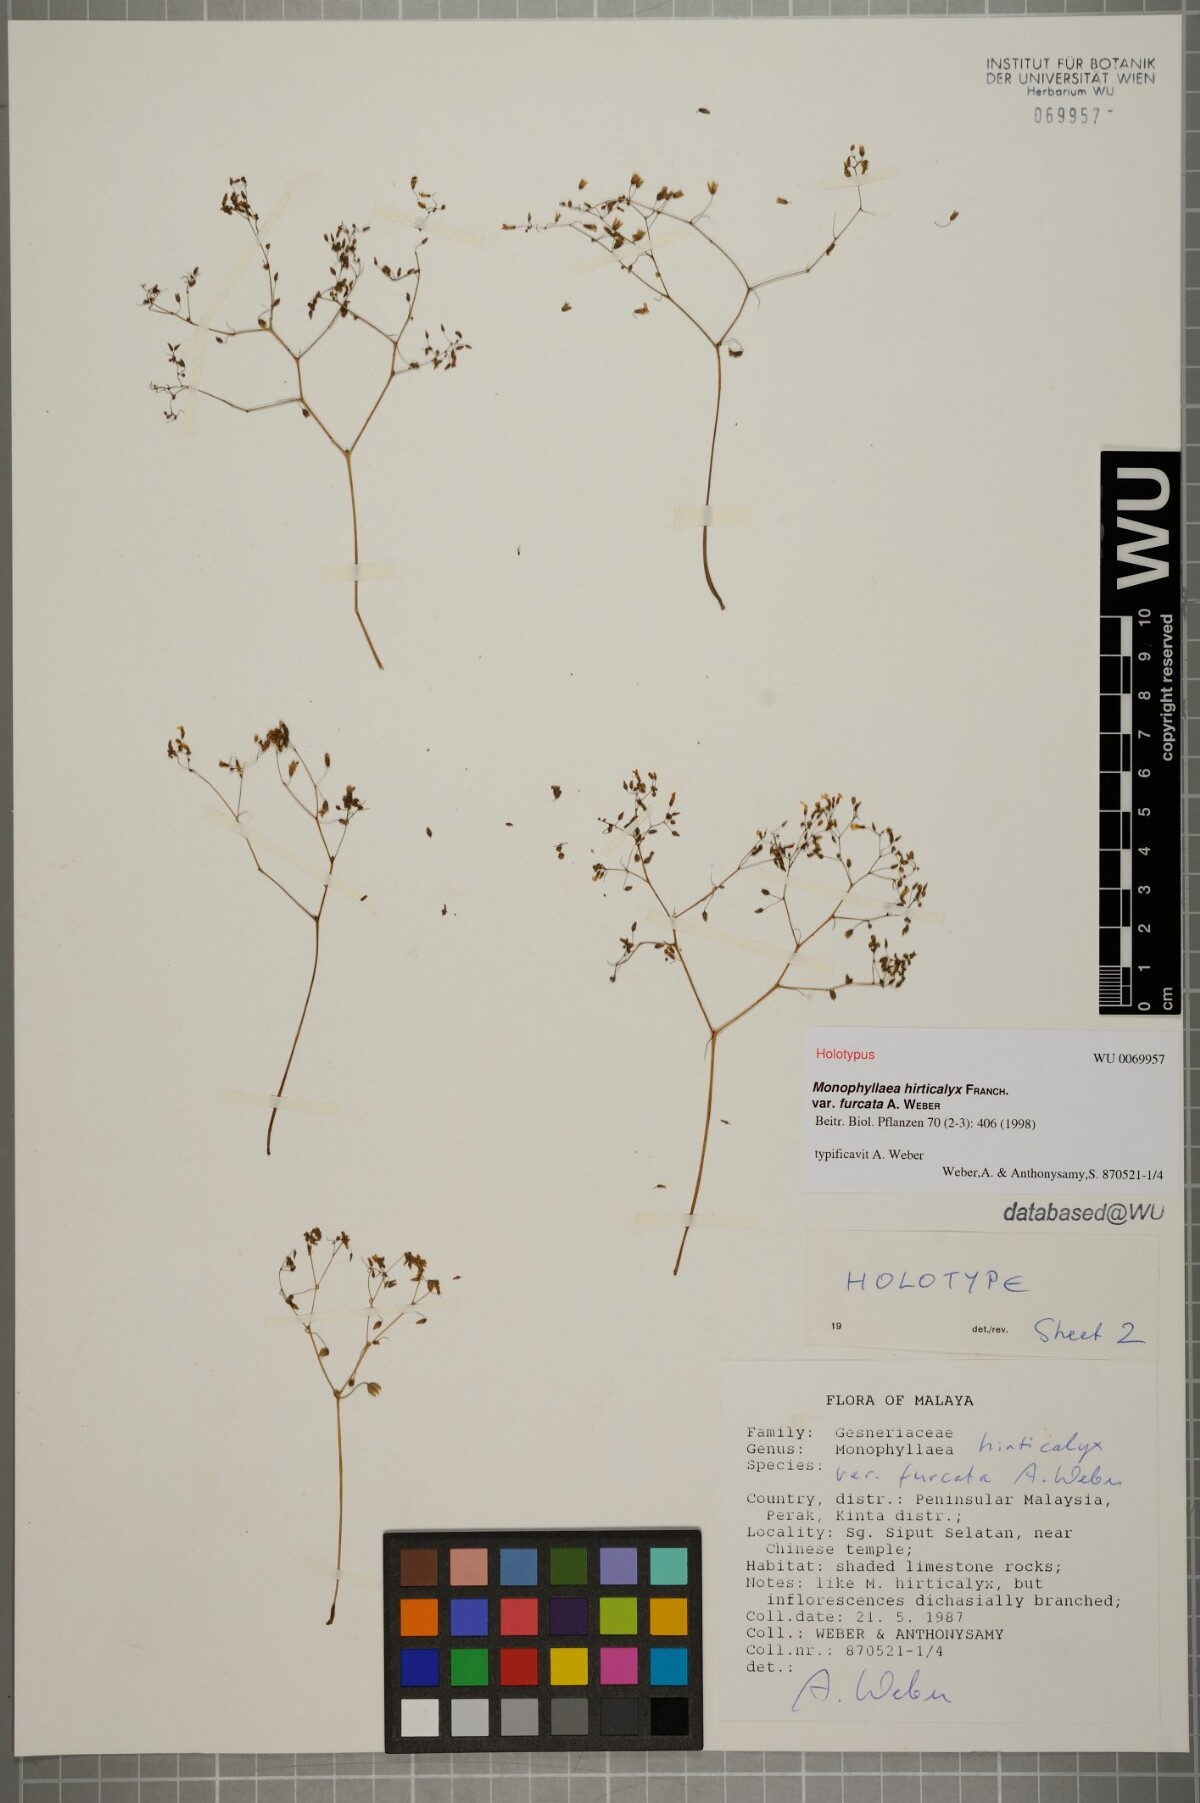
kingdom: Plantae
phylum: Tracheophyta
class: Magnoliopsida
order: Lamiales
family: Gesneriaceae
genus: Monophyllaea
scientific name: Monophyllaea hirticalyx
